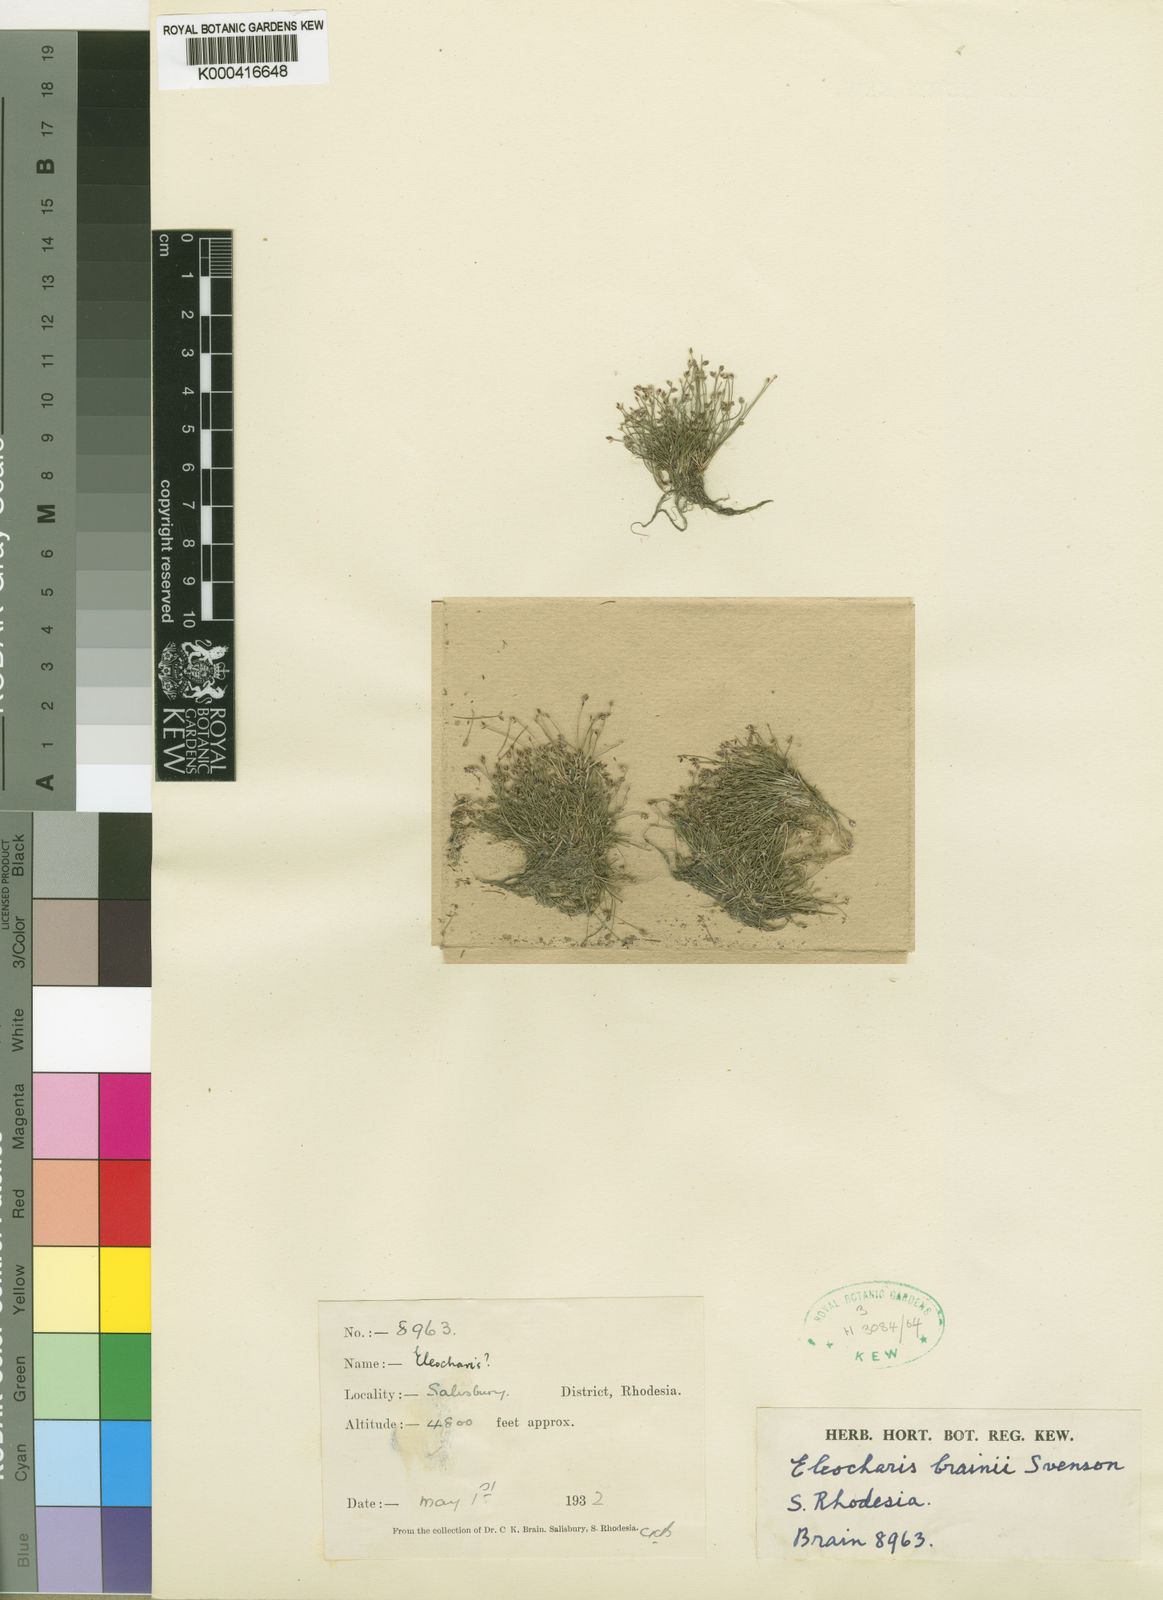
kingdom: Plantae
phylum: Tracheophyta
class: Liliopsida
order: Poales
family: Cyperaceae
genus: Eleocharis
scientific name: Eleocharis brainii
